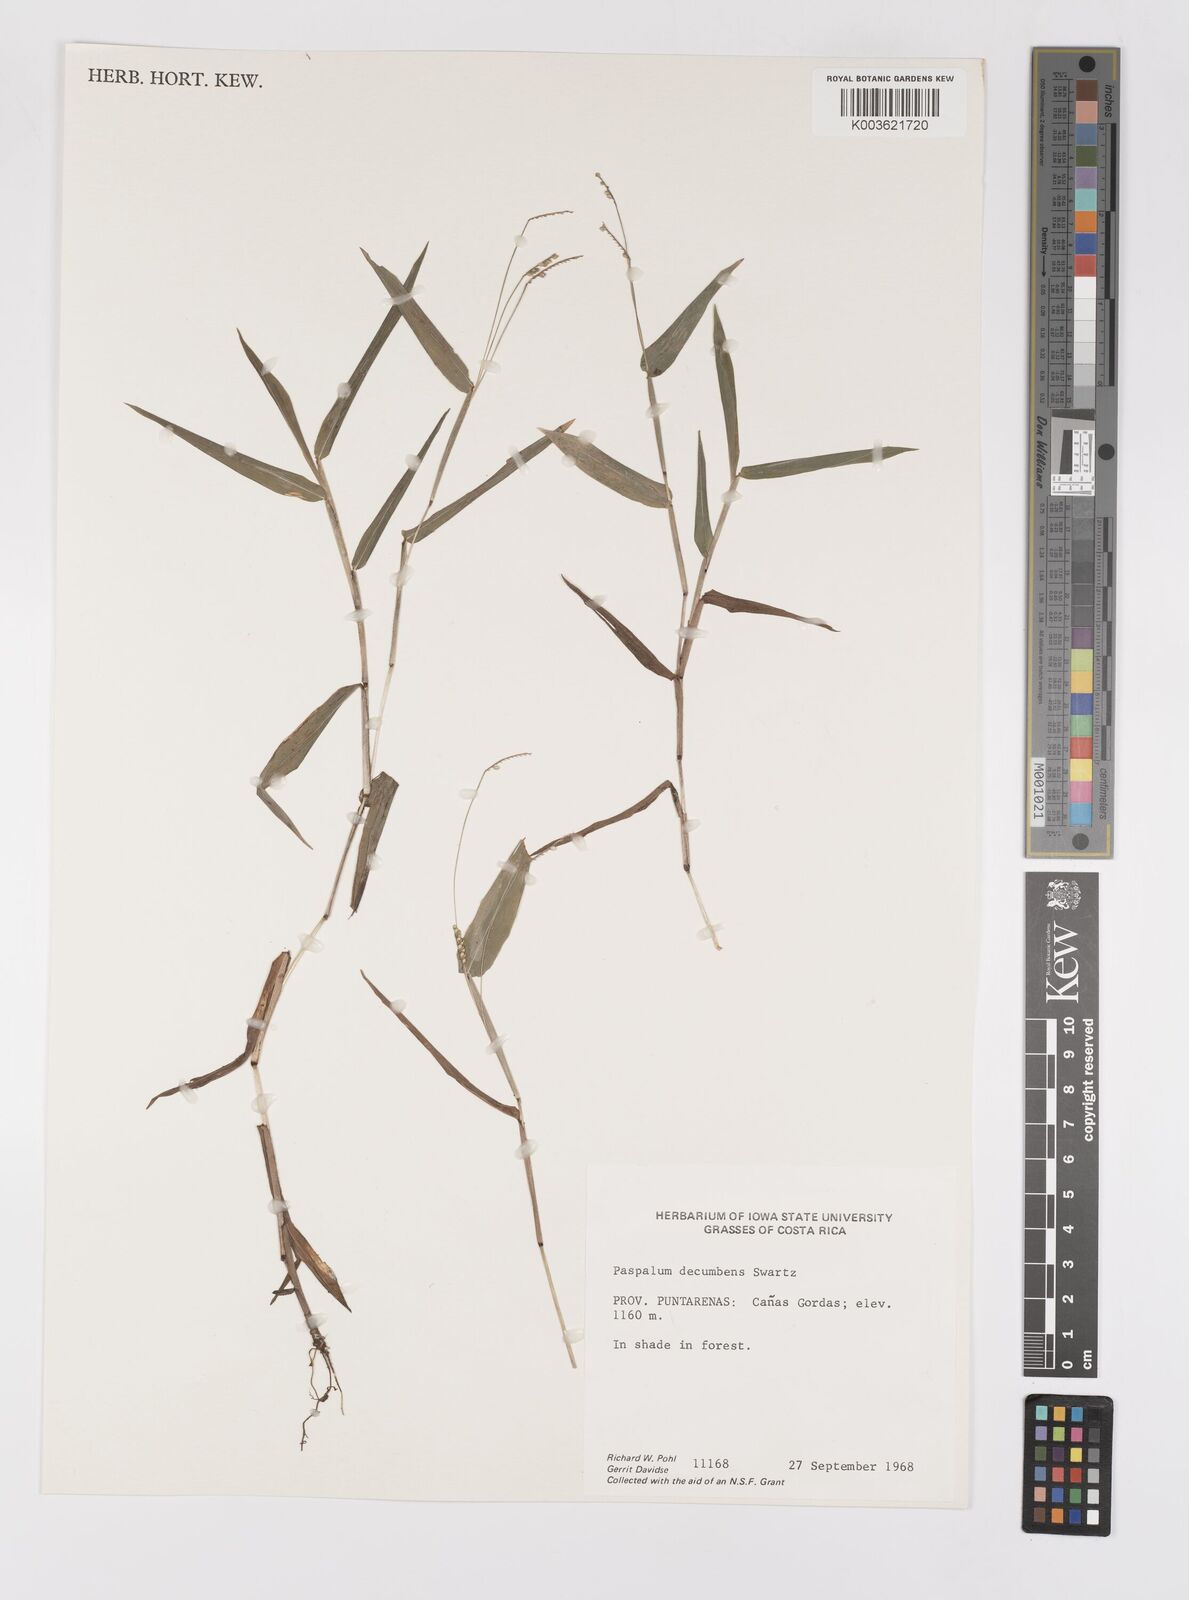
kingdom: Plantae
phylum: Tracheophyta
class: Liliopsida
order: Poales
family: Poaceae
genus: Paspalum
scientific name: Paspalum
